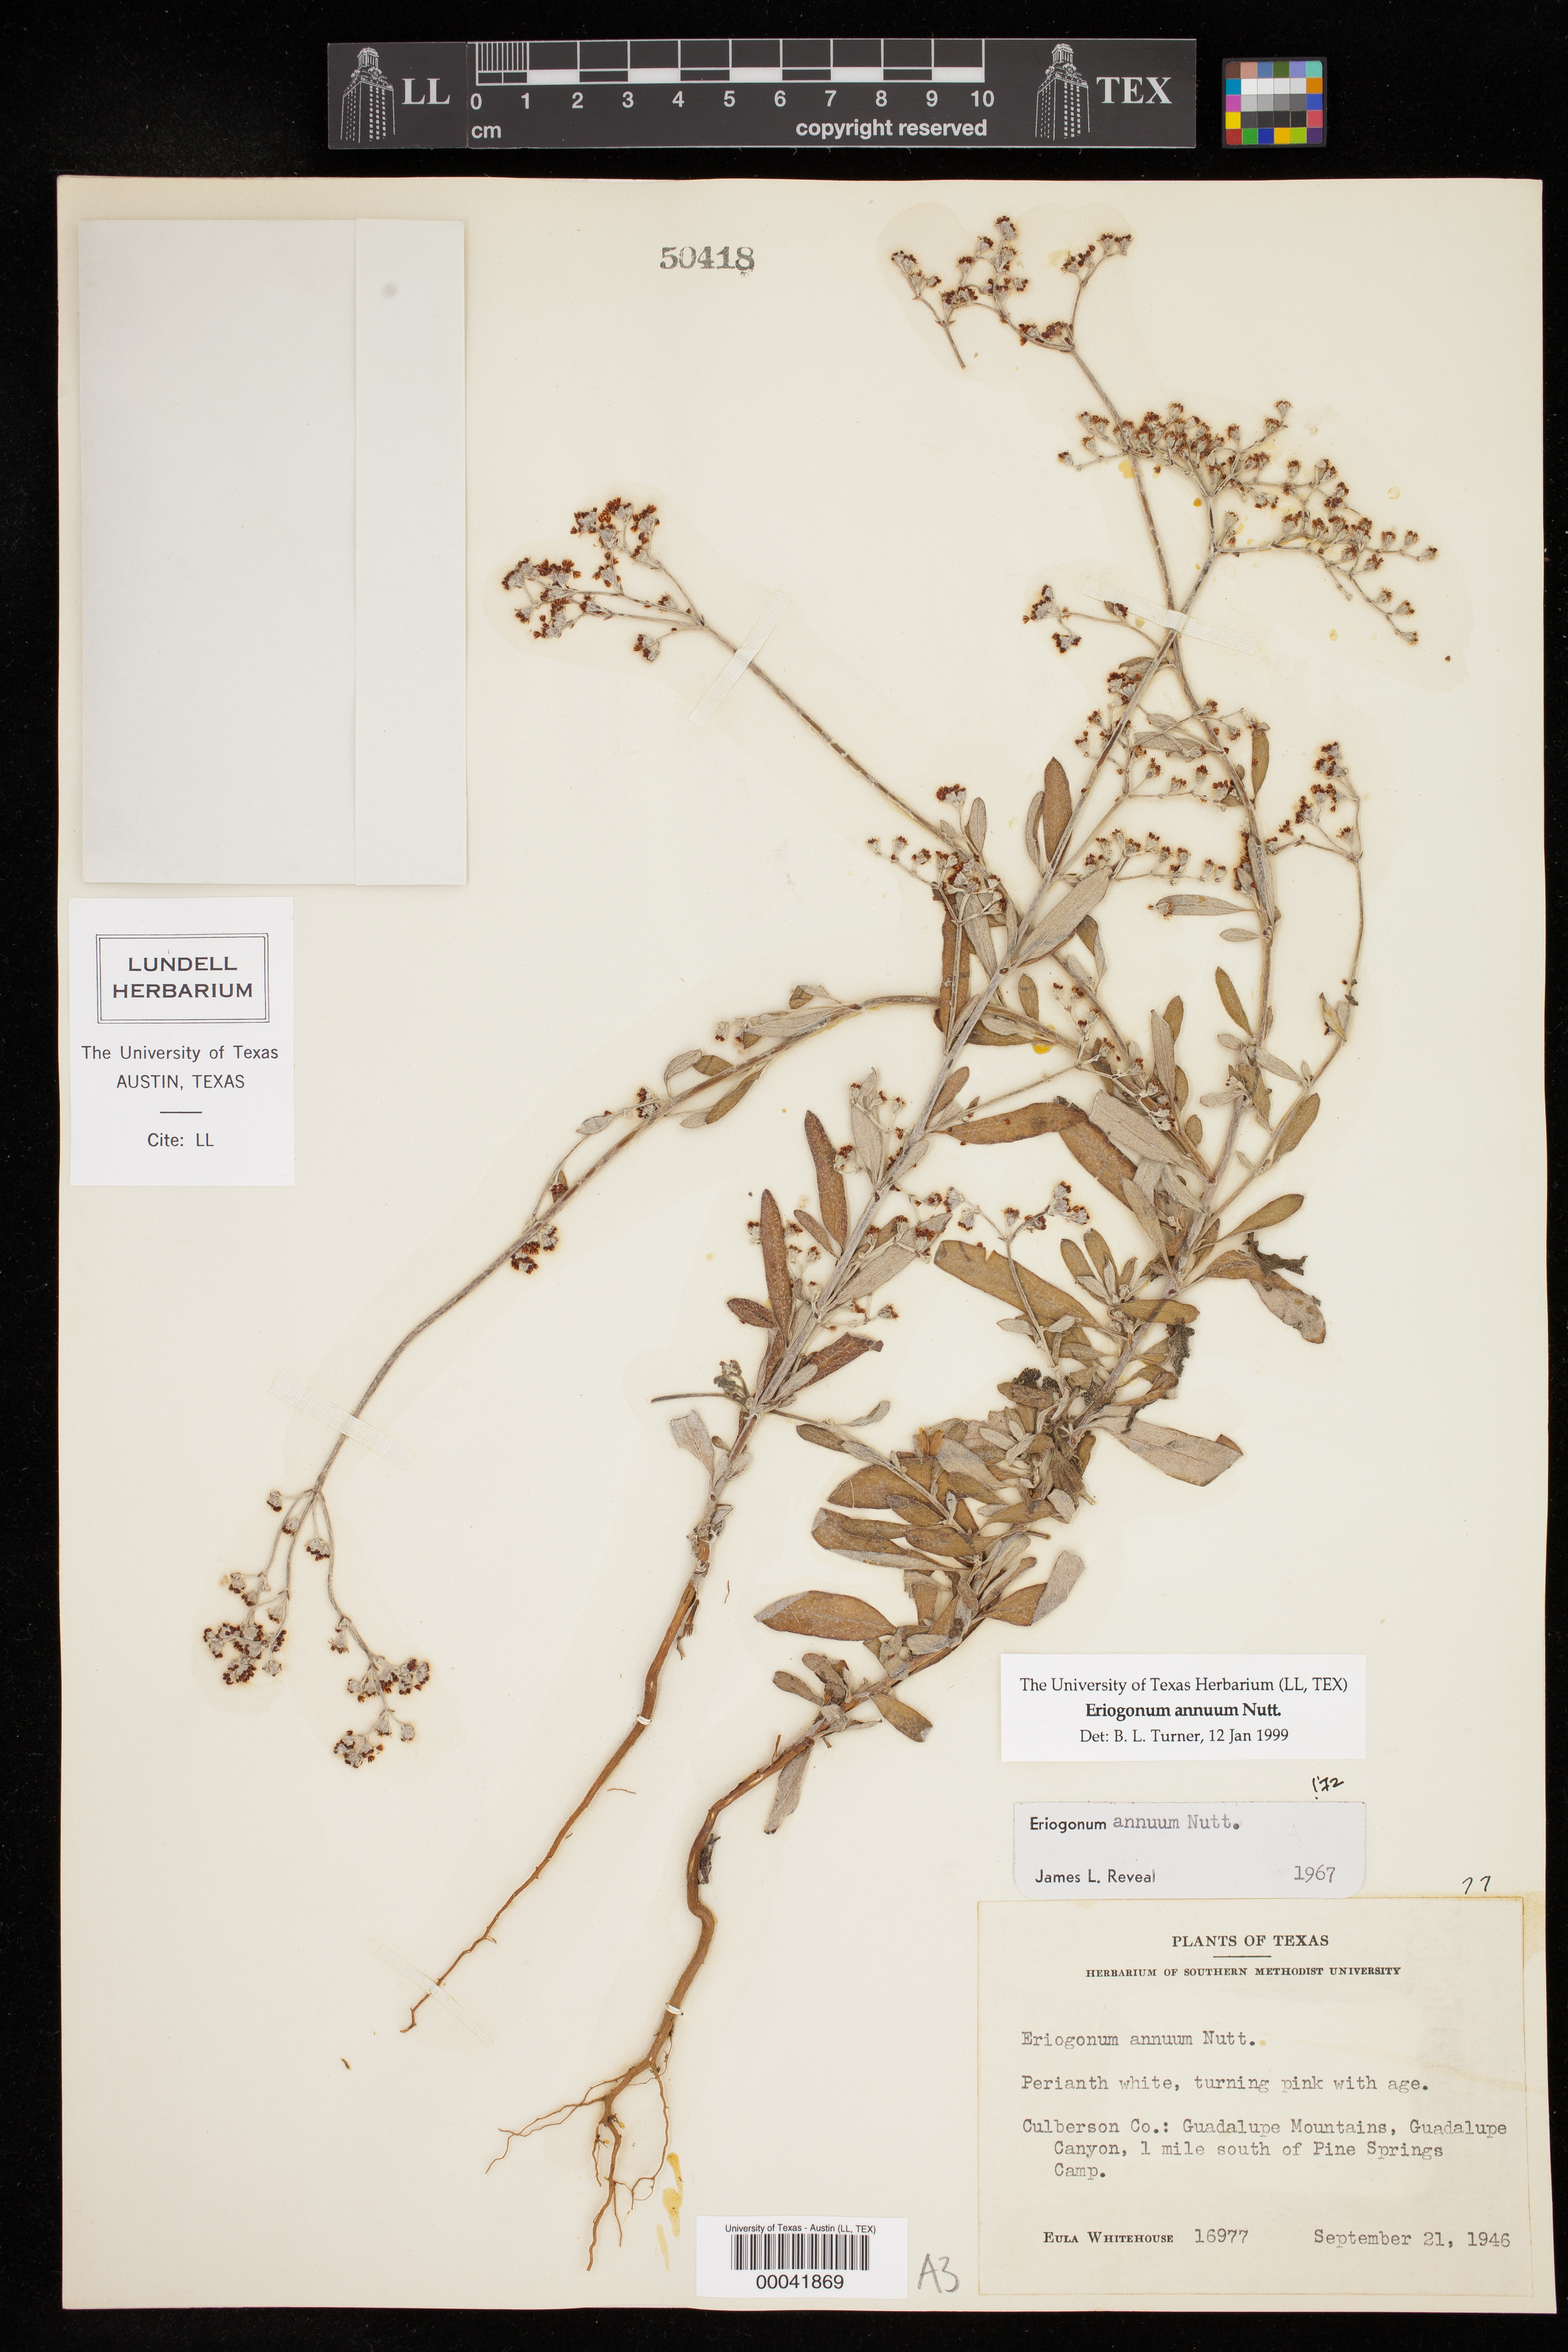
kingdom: Plantae
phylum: Tracheophyta
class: Magnoliopsida
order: Caryophyllales
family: Polygonaceae
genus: Eriogonum
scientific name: Eriogonum annuum
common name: Annual wild buckwheat
